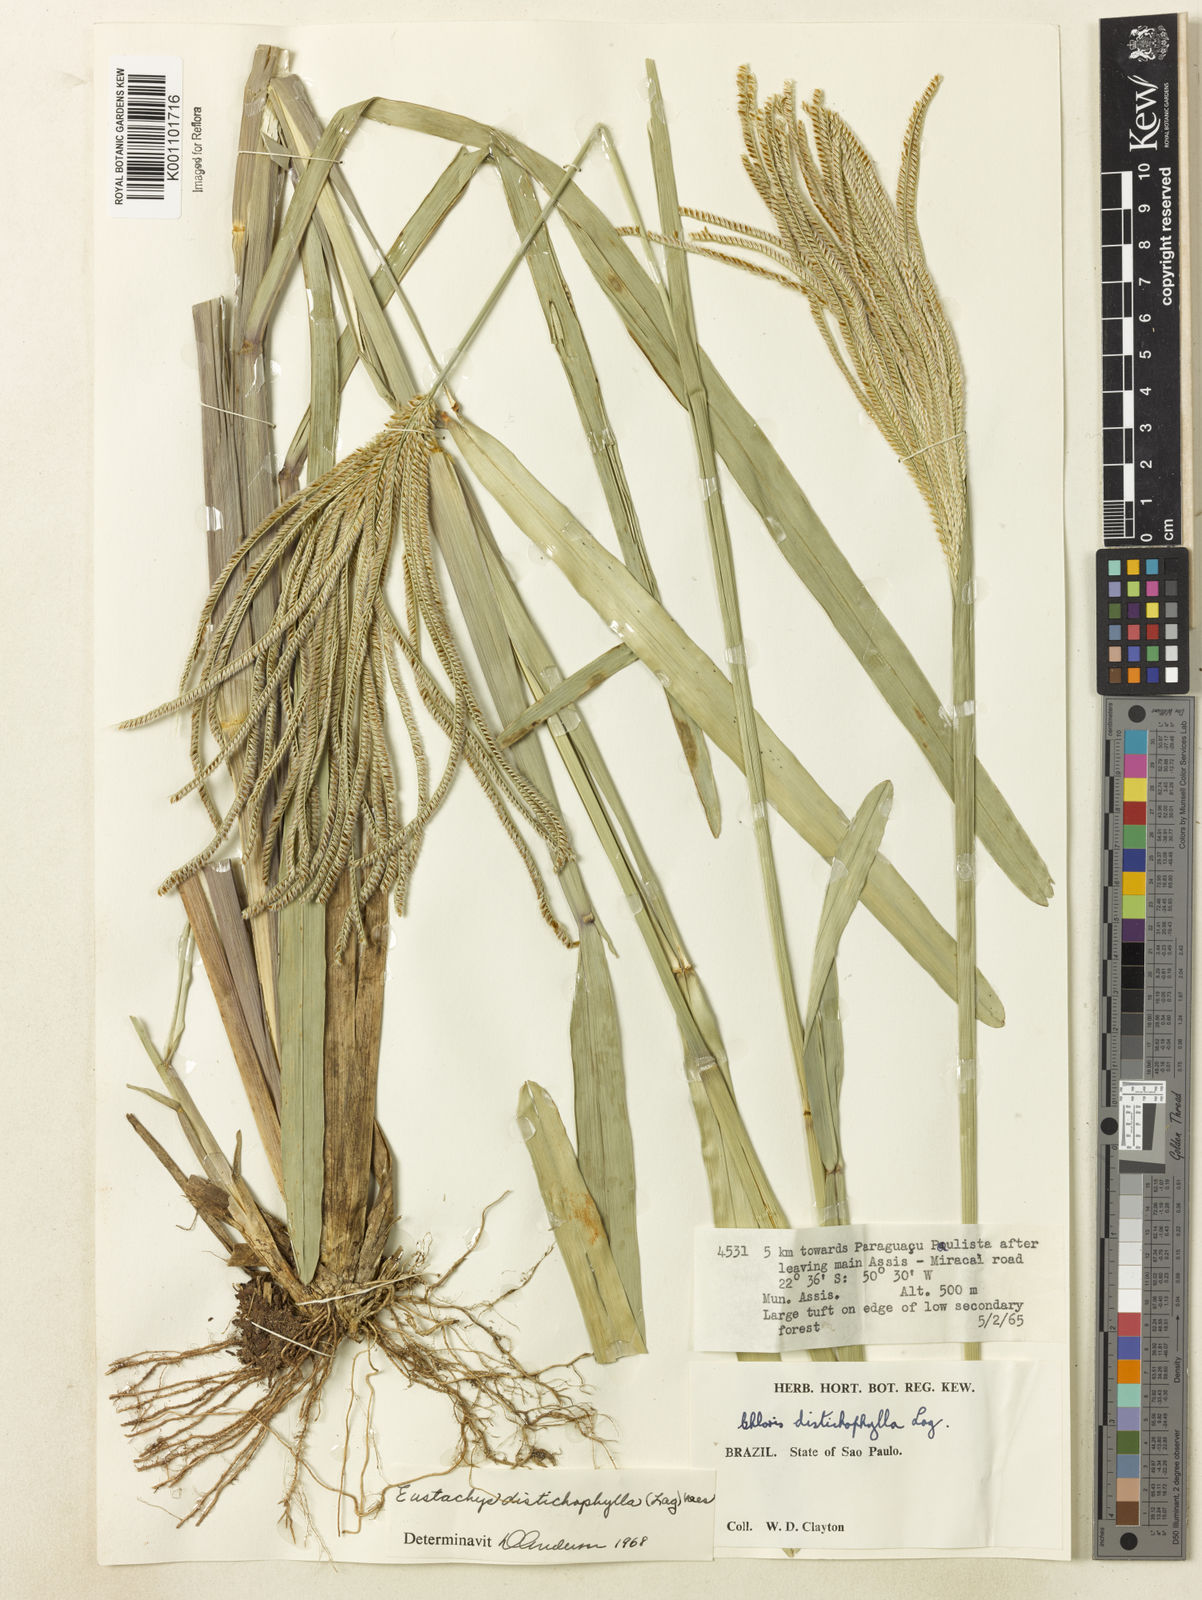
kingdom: Plantae
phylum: Tracheophyta
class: Liliopsida
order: Poales
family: Poaceae
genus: Eustachys
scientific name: Eustachys distichophylla
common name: Weeping fingergrass
